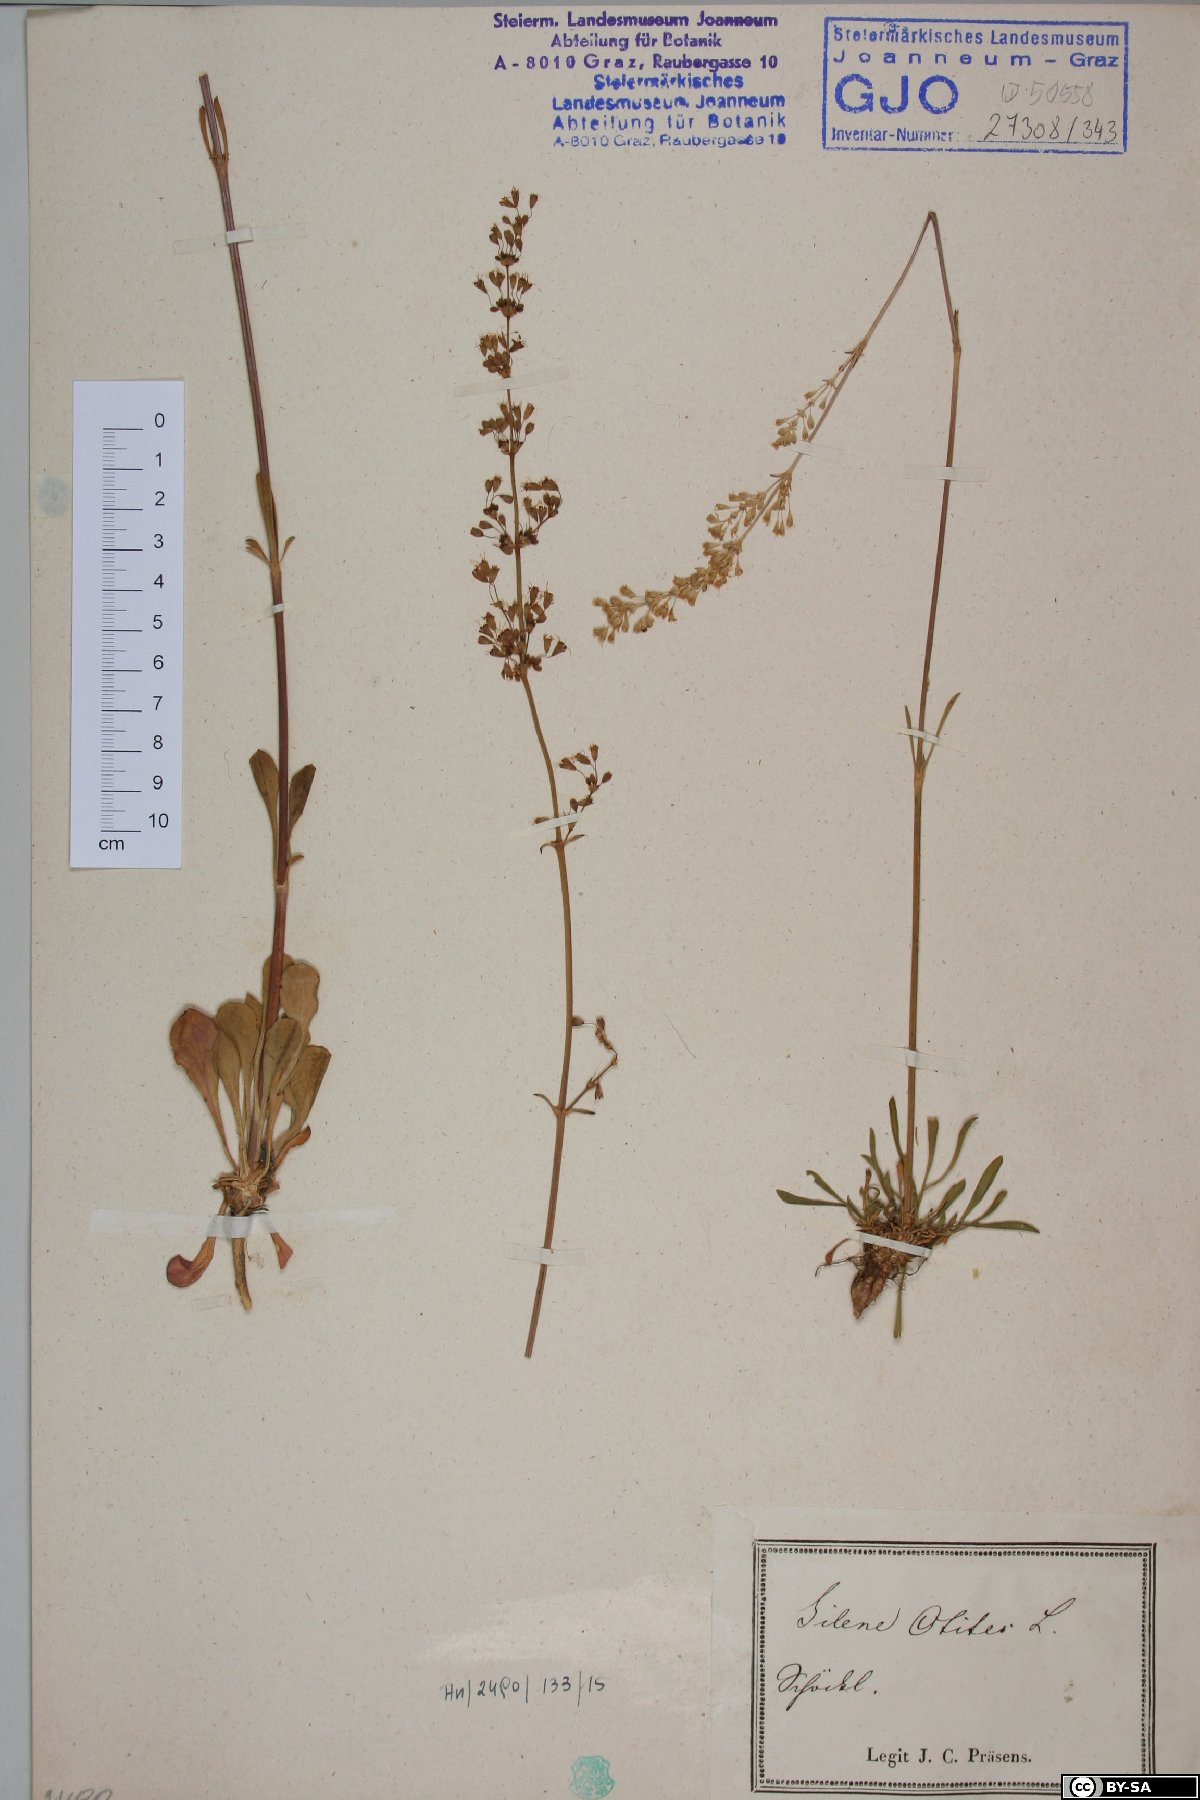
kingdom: Plantae
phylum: Tracheophyta
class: Magnoliopsida
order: Caryophyllales
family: Caryophyllaceae
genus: Silene
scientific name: Silene otites
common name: Spanish catchfly
